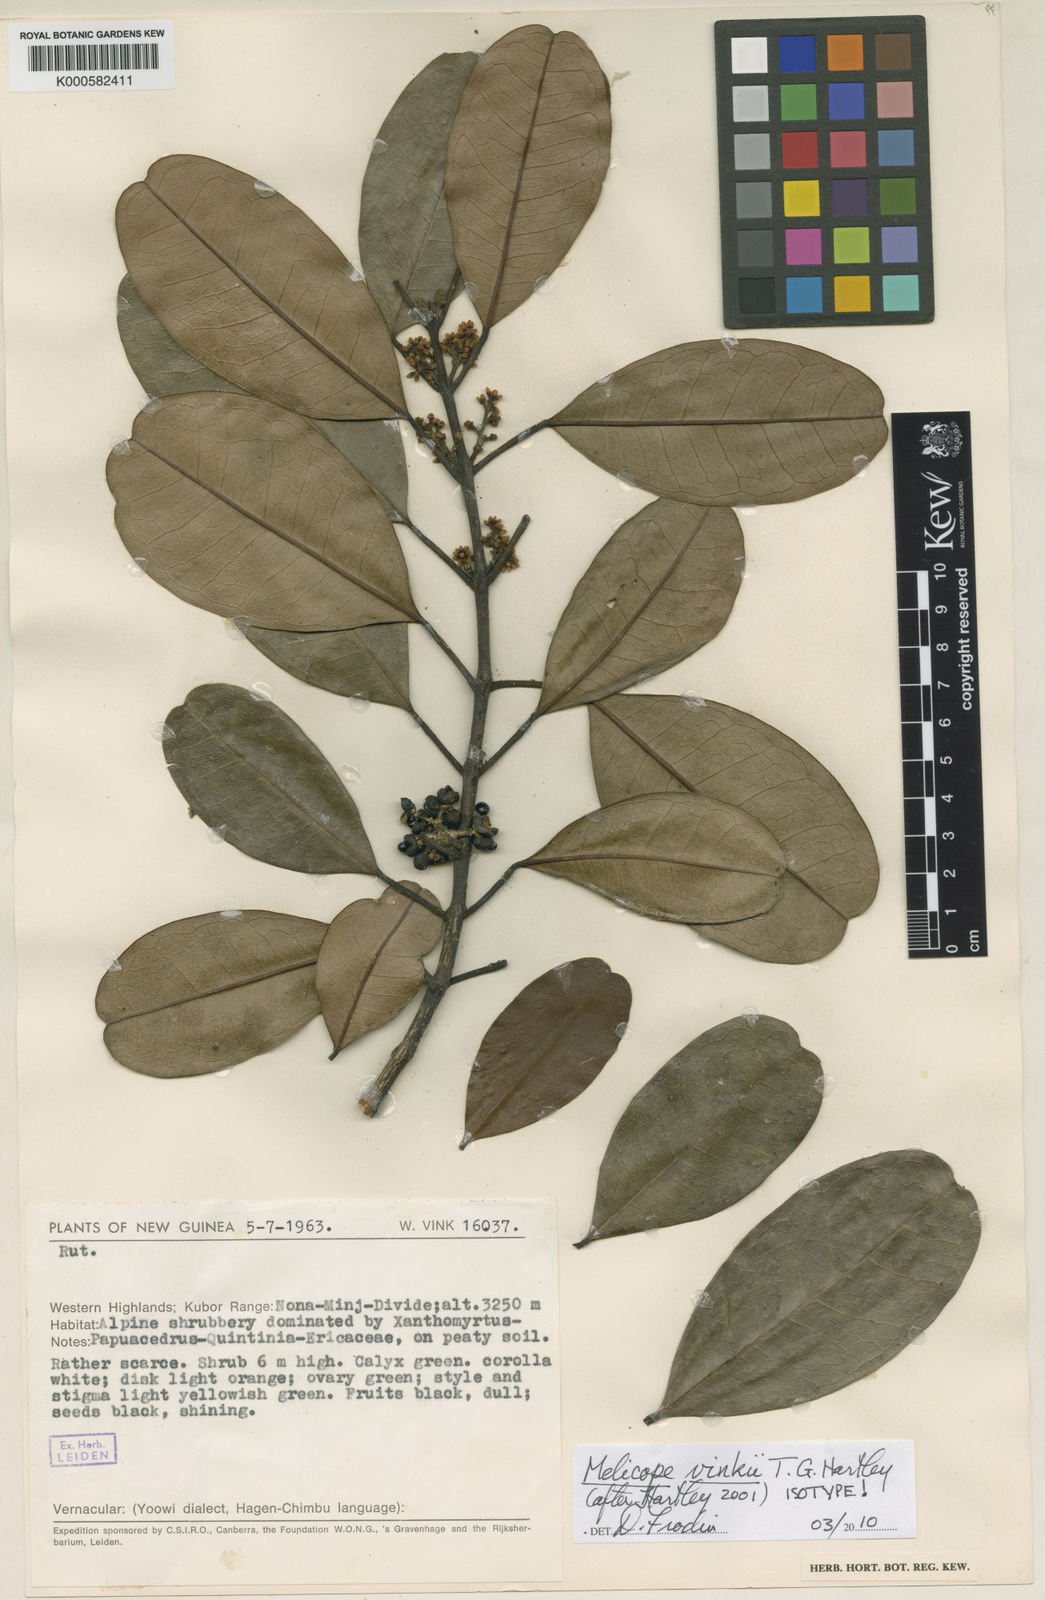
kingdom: Plantae
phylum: Tracheophyta
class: Magnoliopsida
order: Sapindales
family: Rutaceae
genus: Melicope
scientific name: Melicope vinkii
